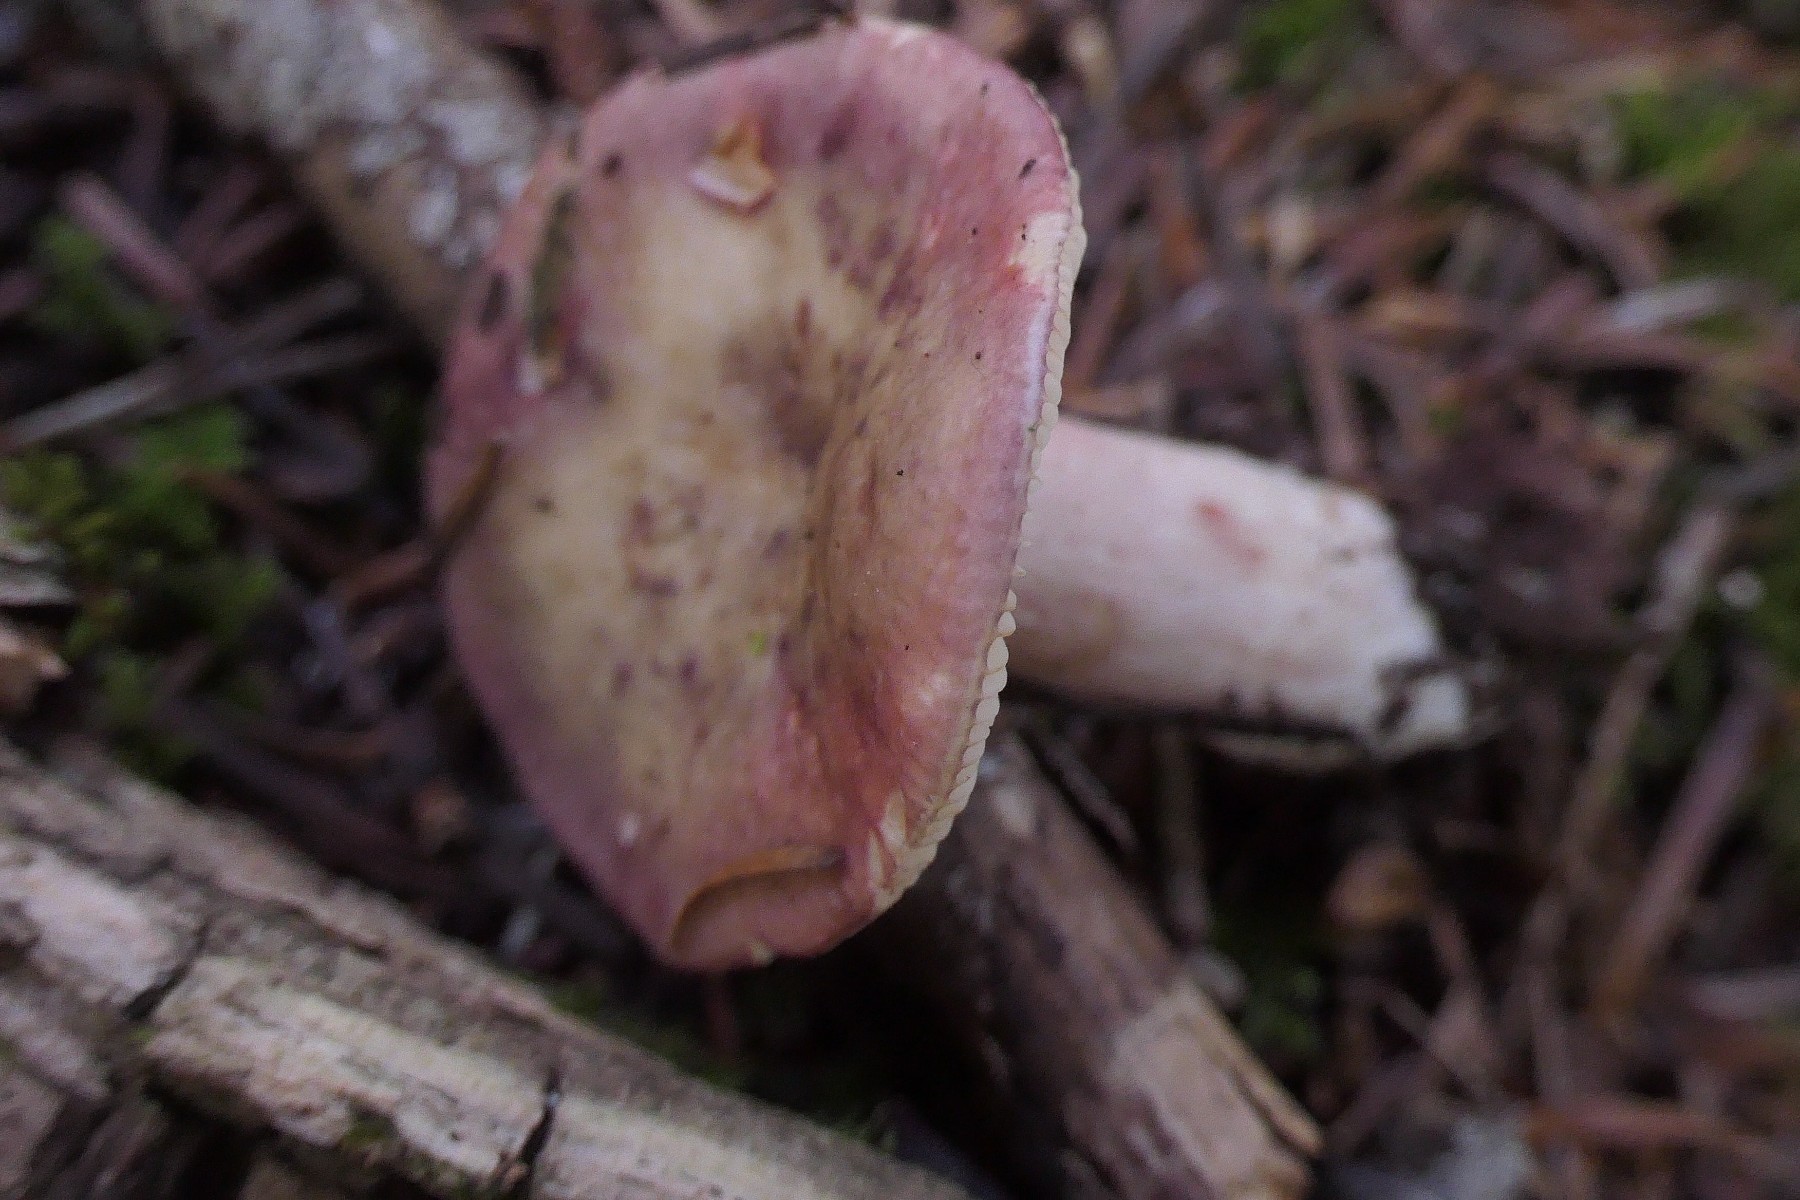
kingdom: Fungi
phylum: Basidiomycota
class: Agaricomycetes
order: Russulales
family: Russulaceae
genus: Russula
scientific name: Russula queletii
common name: Quélets skørhat
